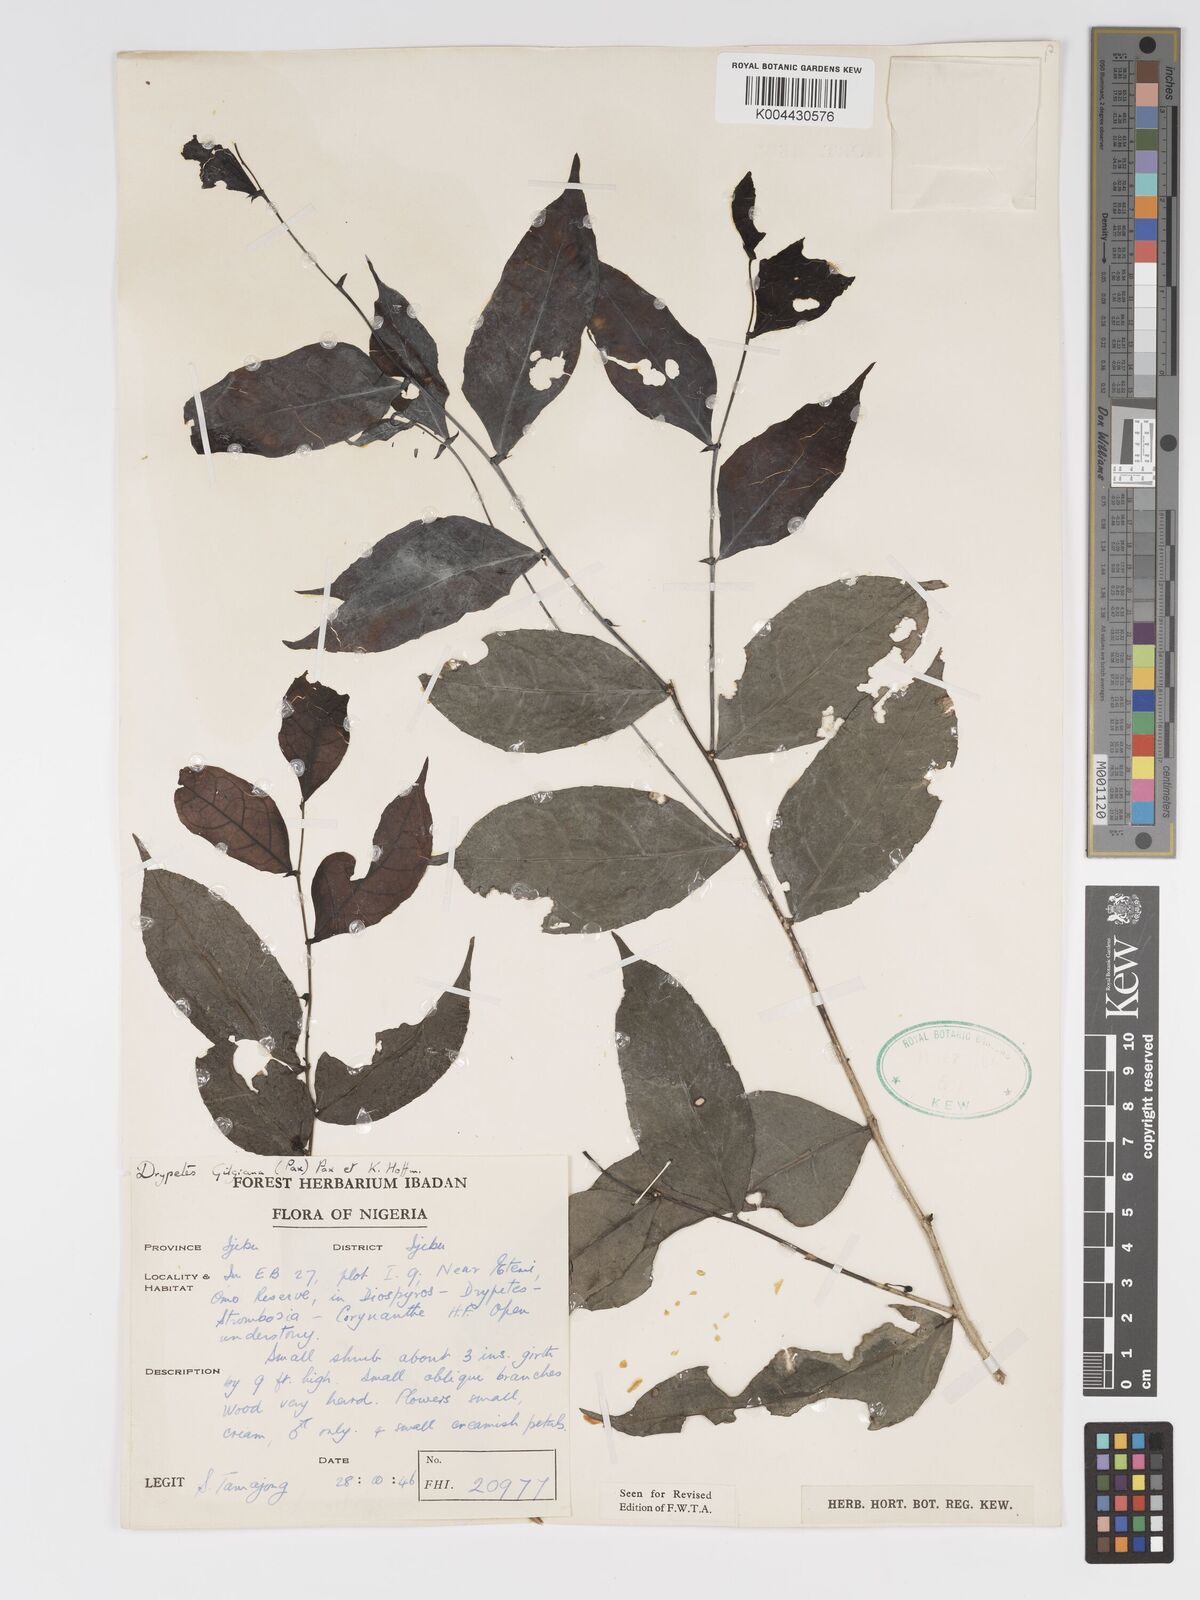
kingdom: Plantae
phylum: Tracheophyta
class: Magnoliopsida
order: Malpighiales
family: Putranjivaceae
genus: Drypetes
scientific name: Drypetes gilgiana
